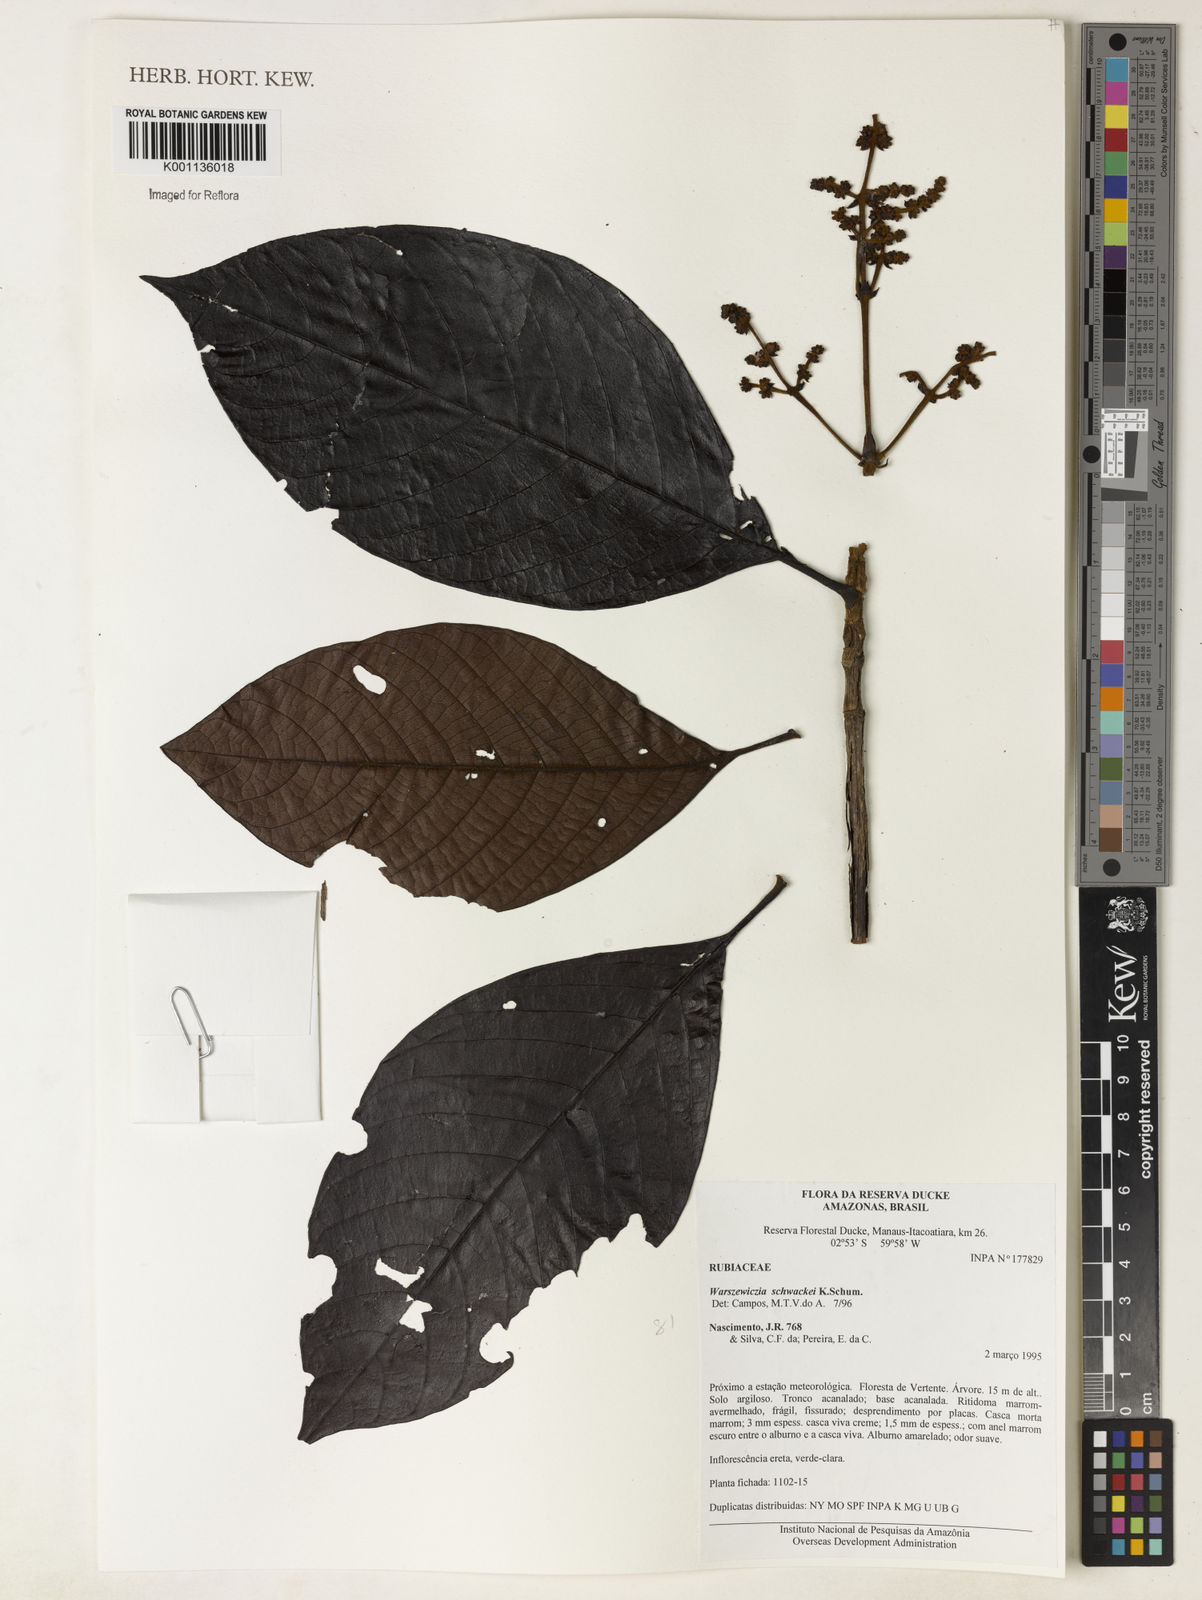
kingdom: Plantae
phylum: Tracheophyta
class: Magnoliopsida
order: Gentianales
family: Rubiaceae
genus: Warszewiczia
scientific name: Warszewiczia schwackei
